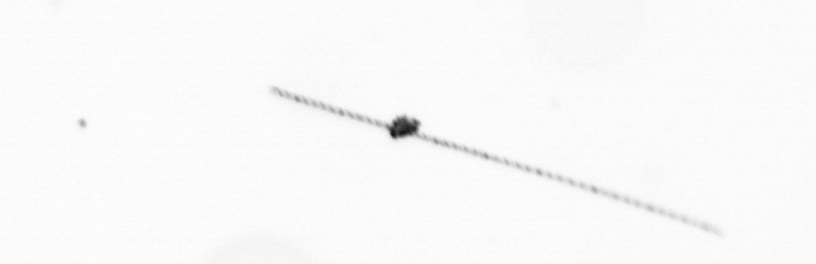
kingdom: Chromista
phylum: Ochrophyta
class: Bacillariophyceae
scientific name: Bacillariophyceae
